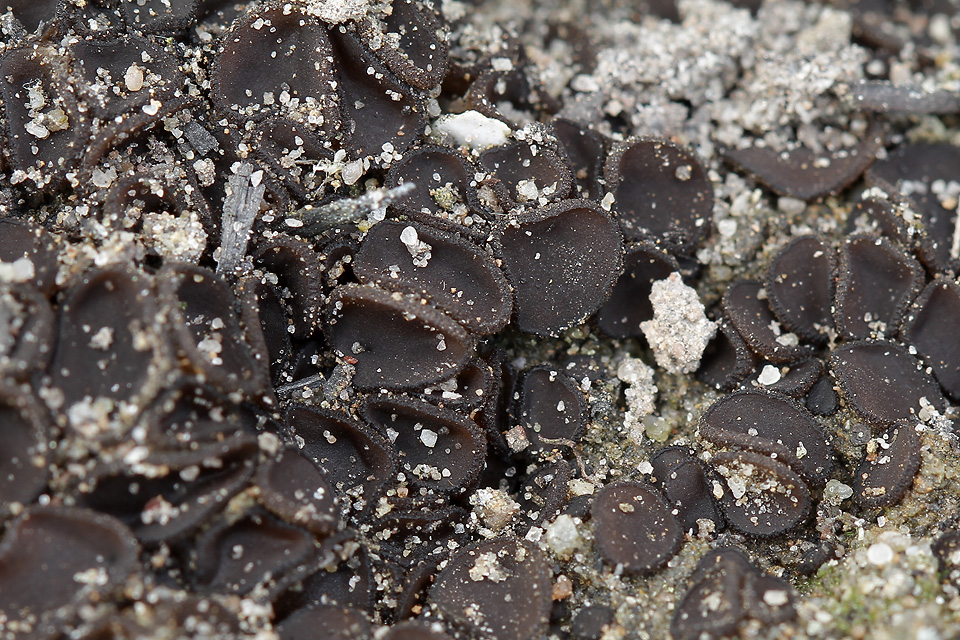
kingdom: Fungi
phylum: Ascomycota
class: Pezizomycetes
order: Pezizales
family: Pyronemataceae
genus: Anthracobia
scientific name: Anthracobia subatra
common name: mørk ildbæger
